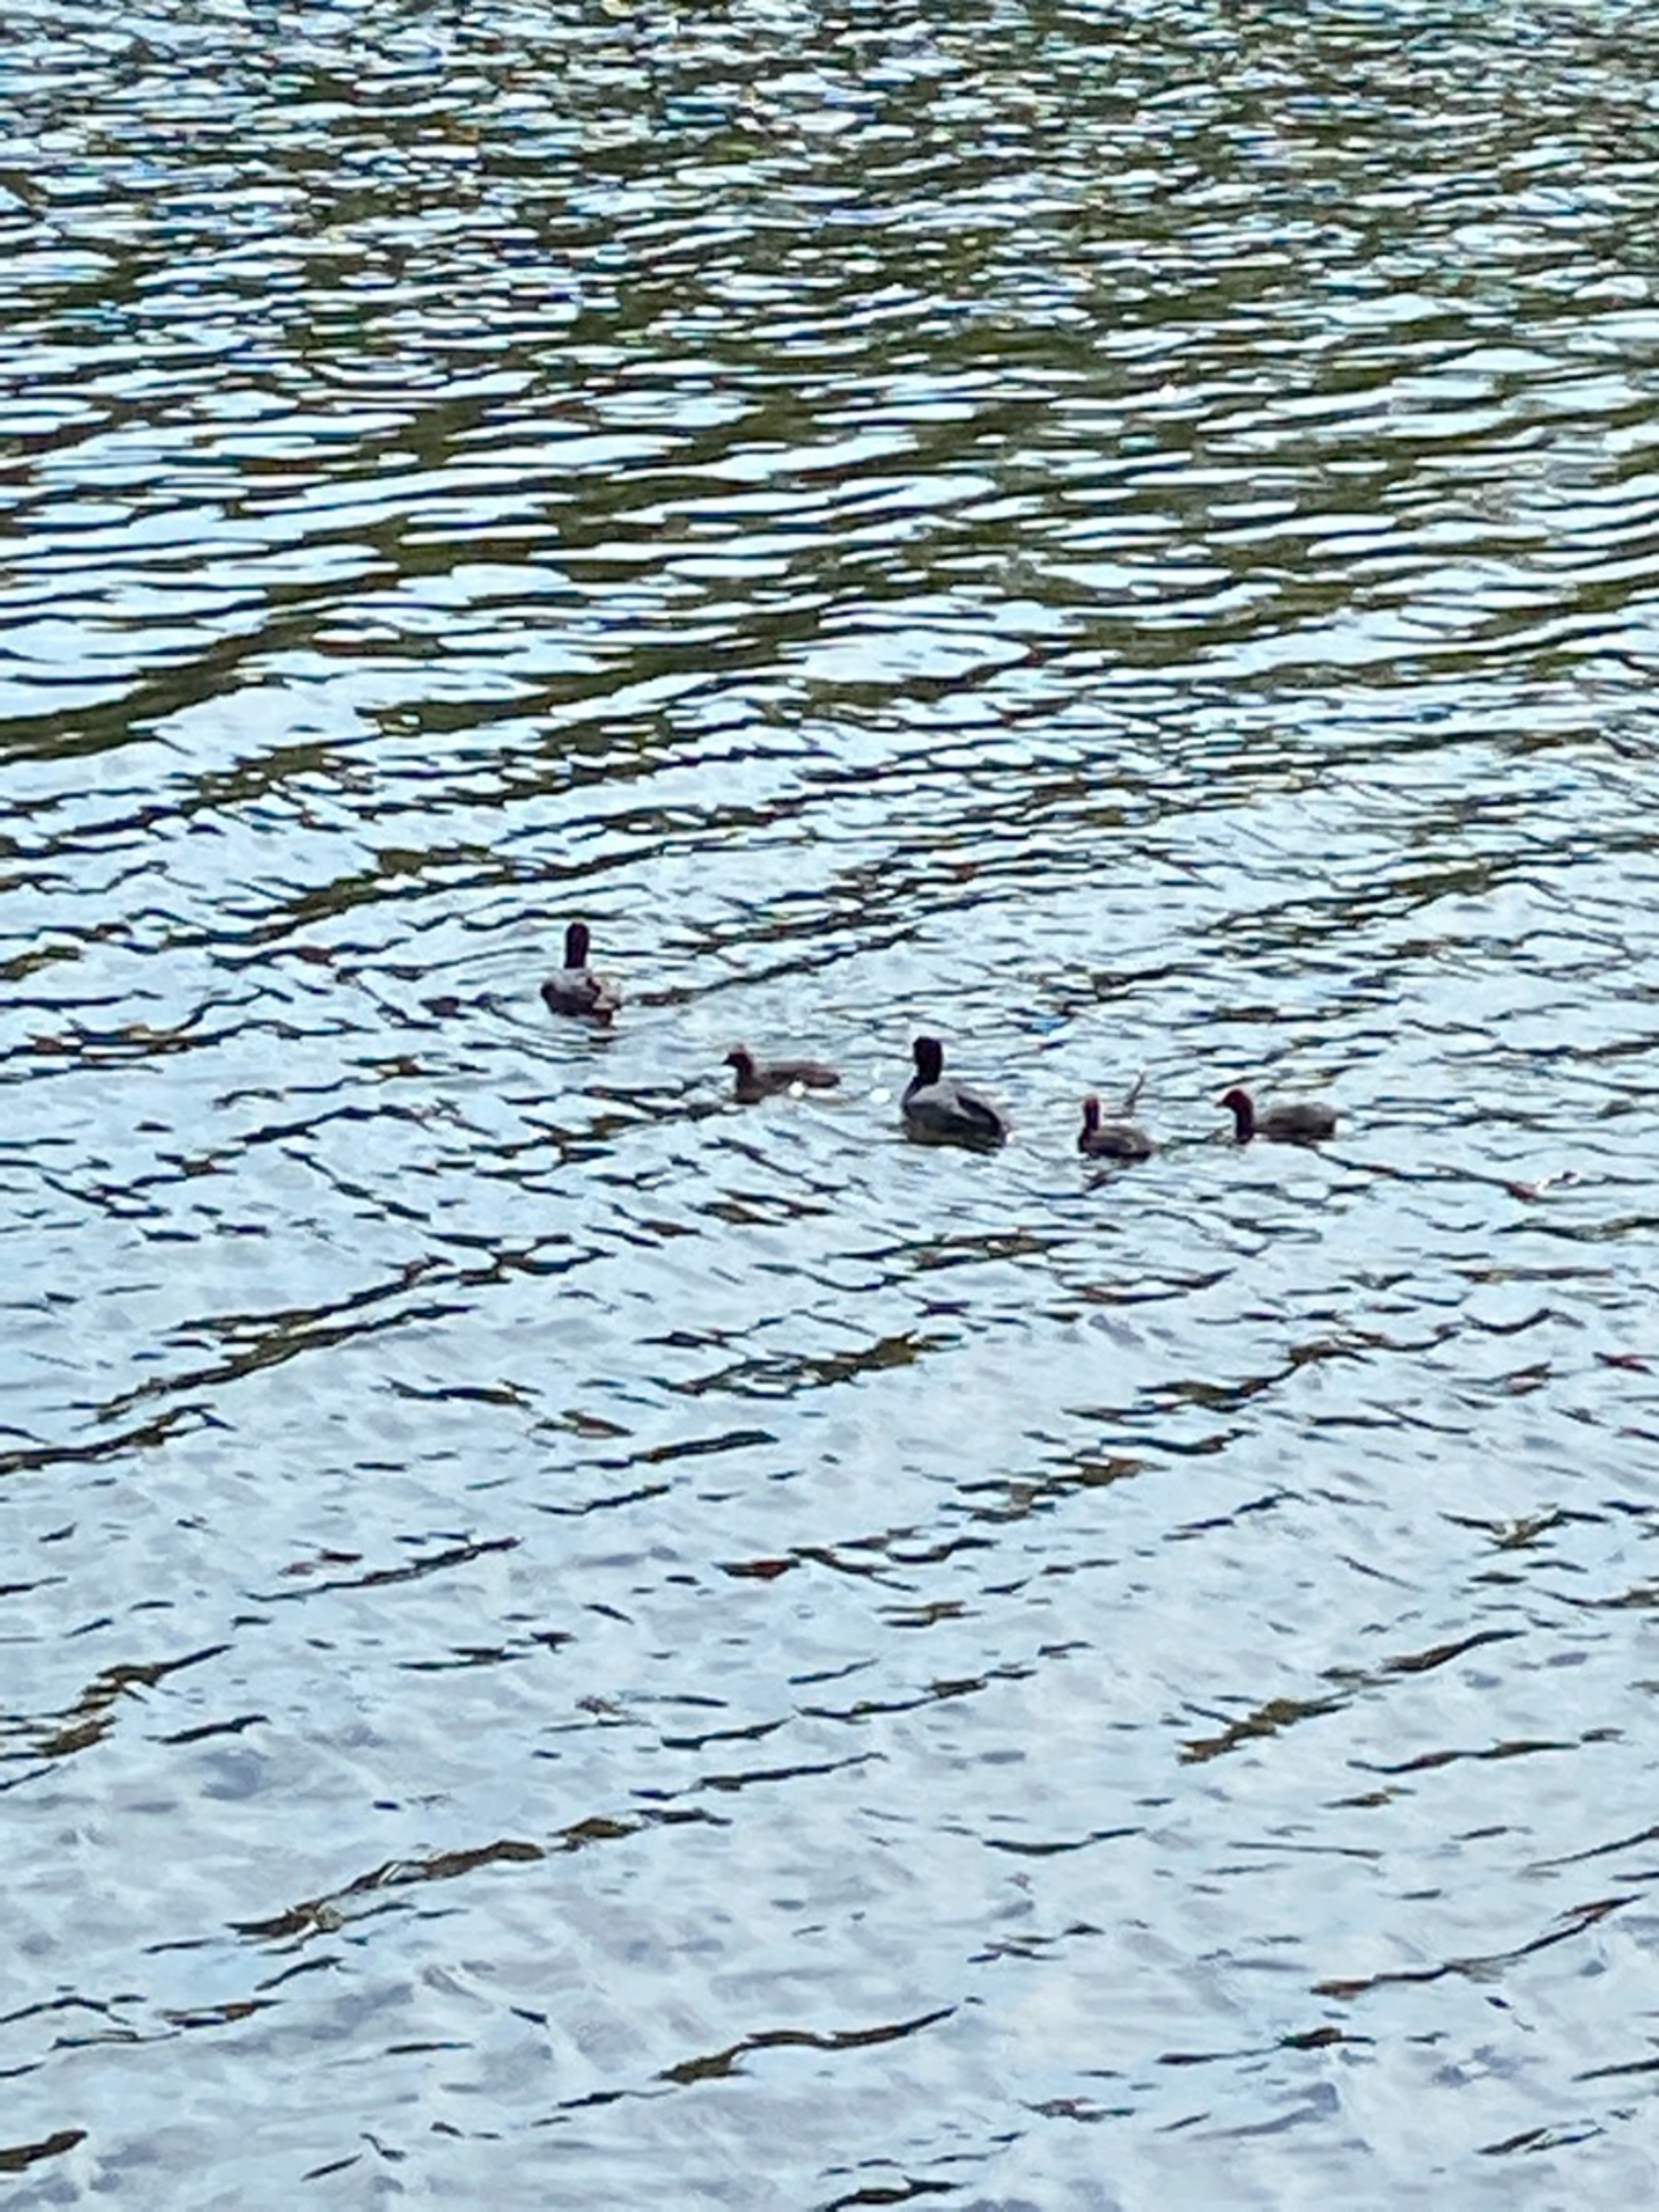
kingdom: Animalia
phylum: Chordata
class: Aves
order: Gruiformes
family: Rallidae
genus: Fulica
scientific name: Fulica atra
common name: Blishøne
